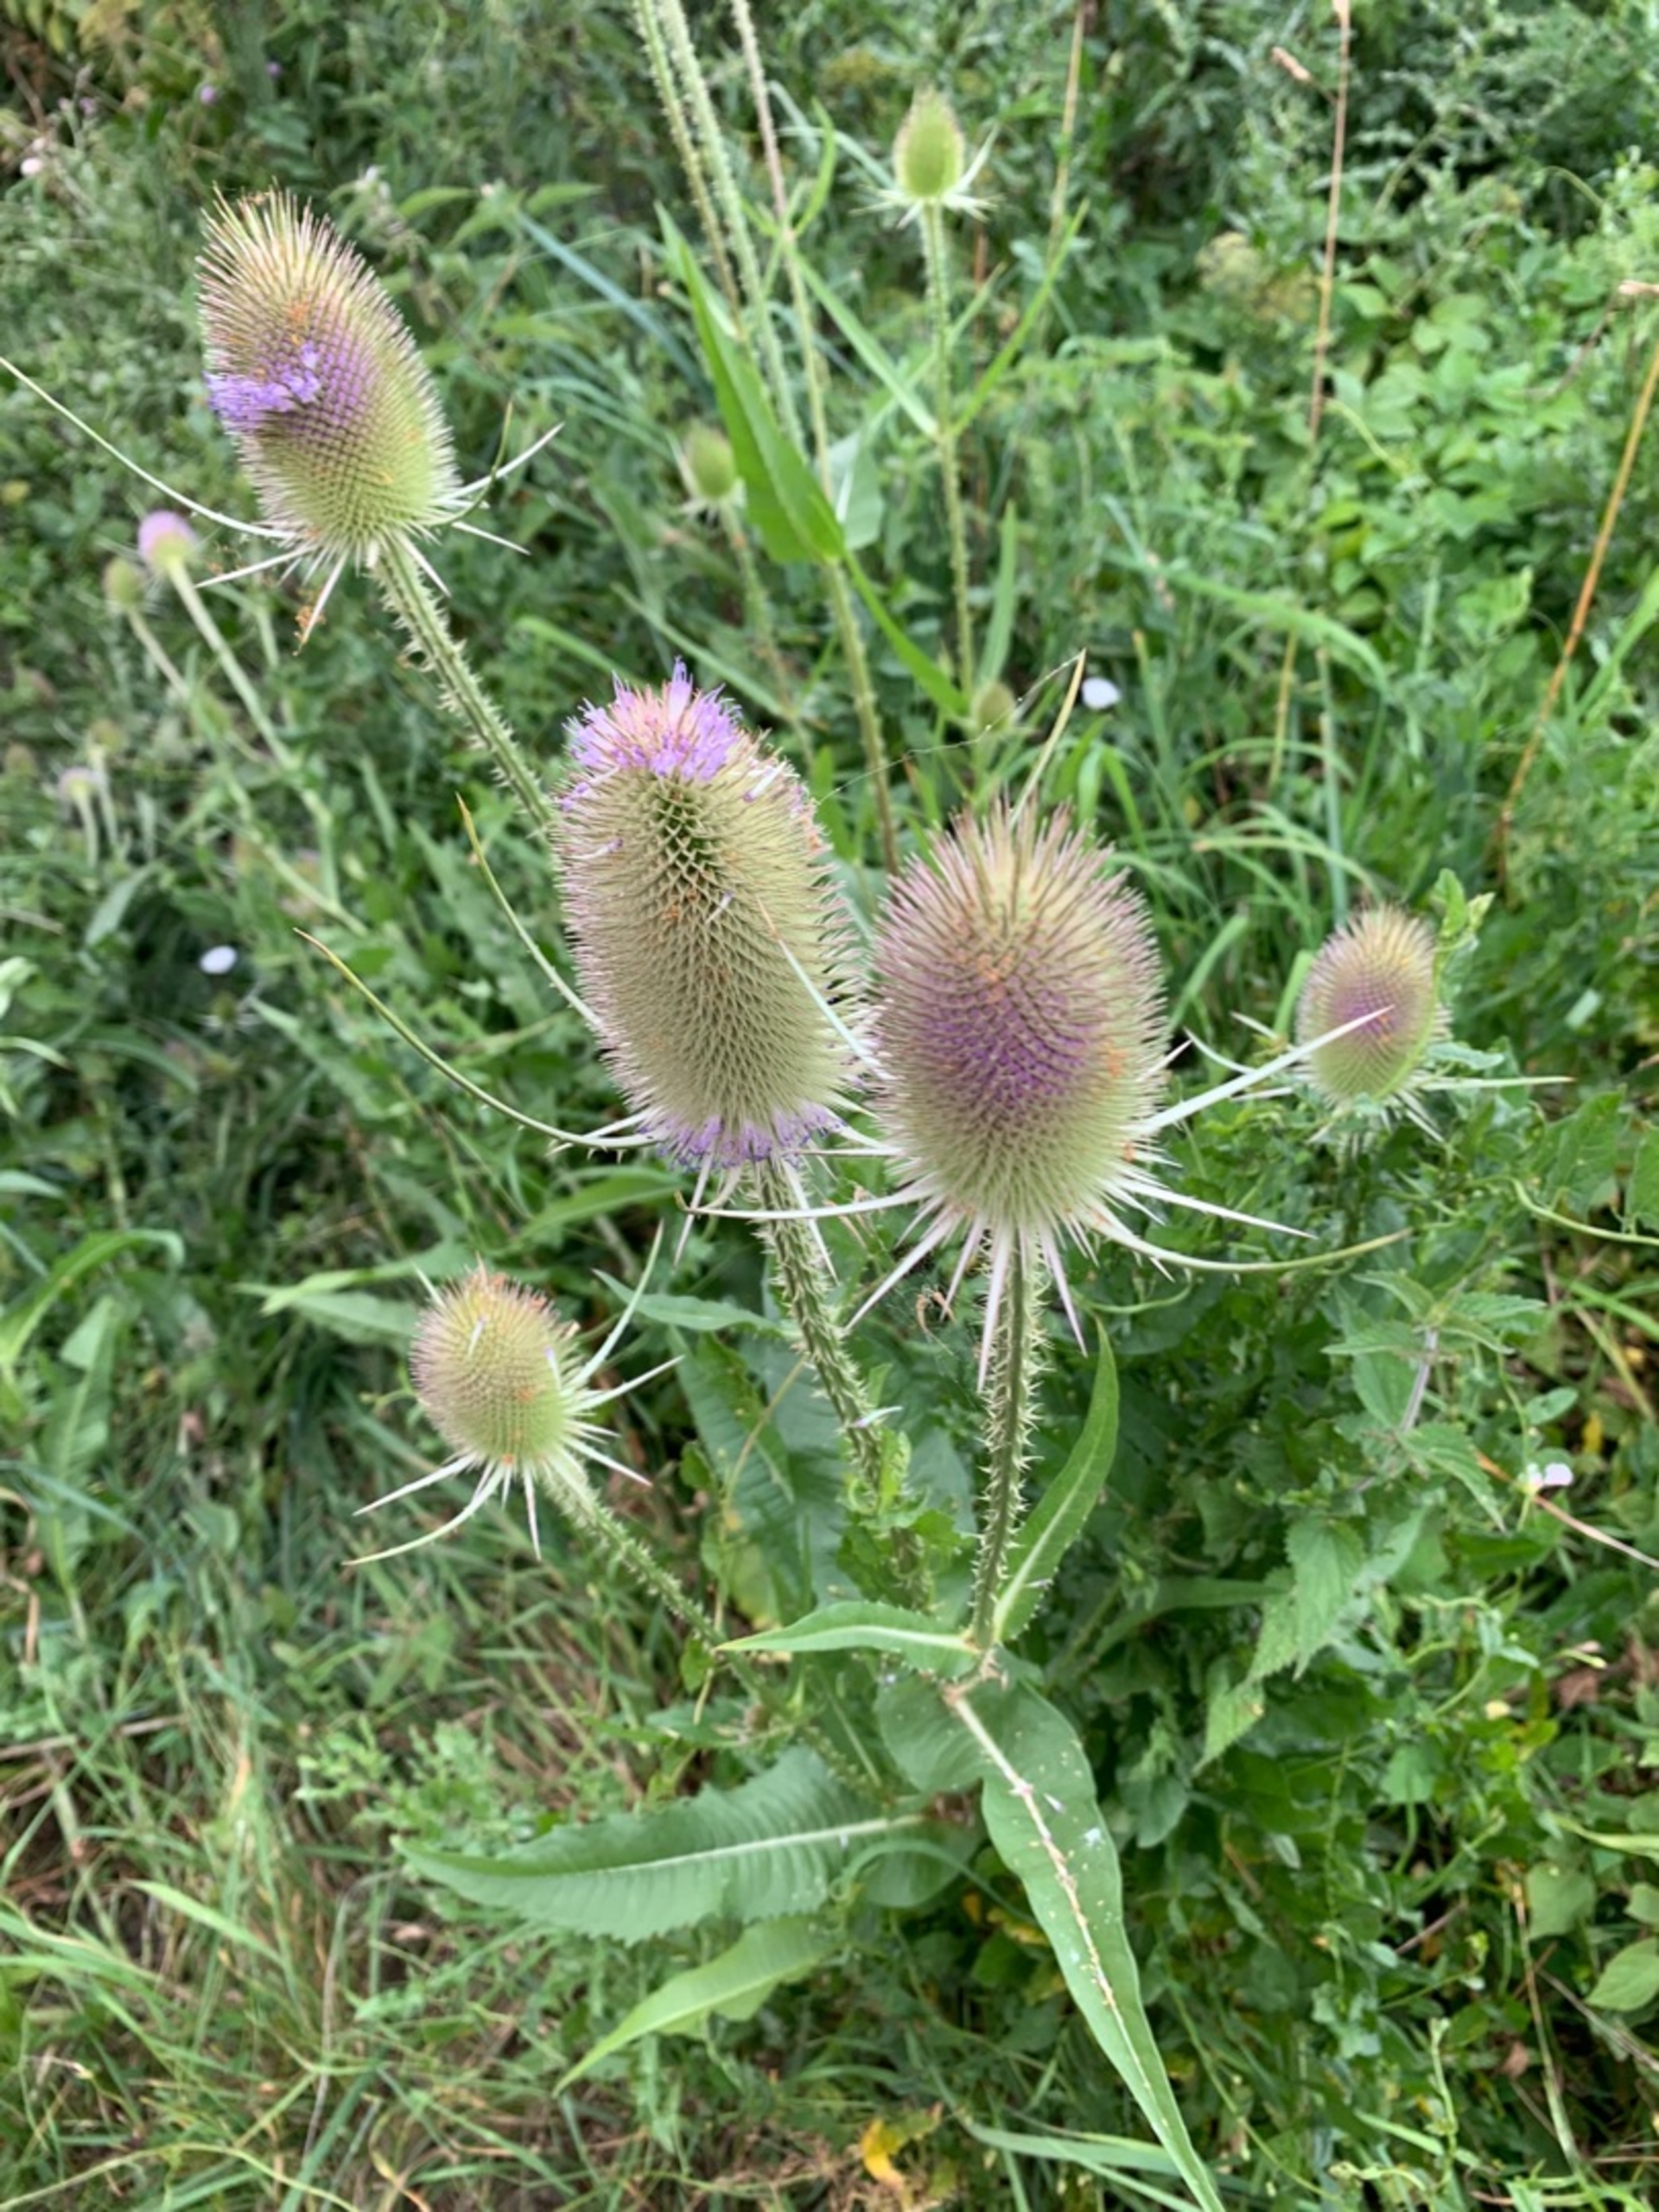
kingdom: Plantae
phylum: Tracheophyta
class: Magnoliopsida
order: Dipsacales
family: Caprifoliaceae
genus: Dipsacus
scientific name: Dipsacus fullonum
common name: Gærde-kartebolle
